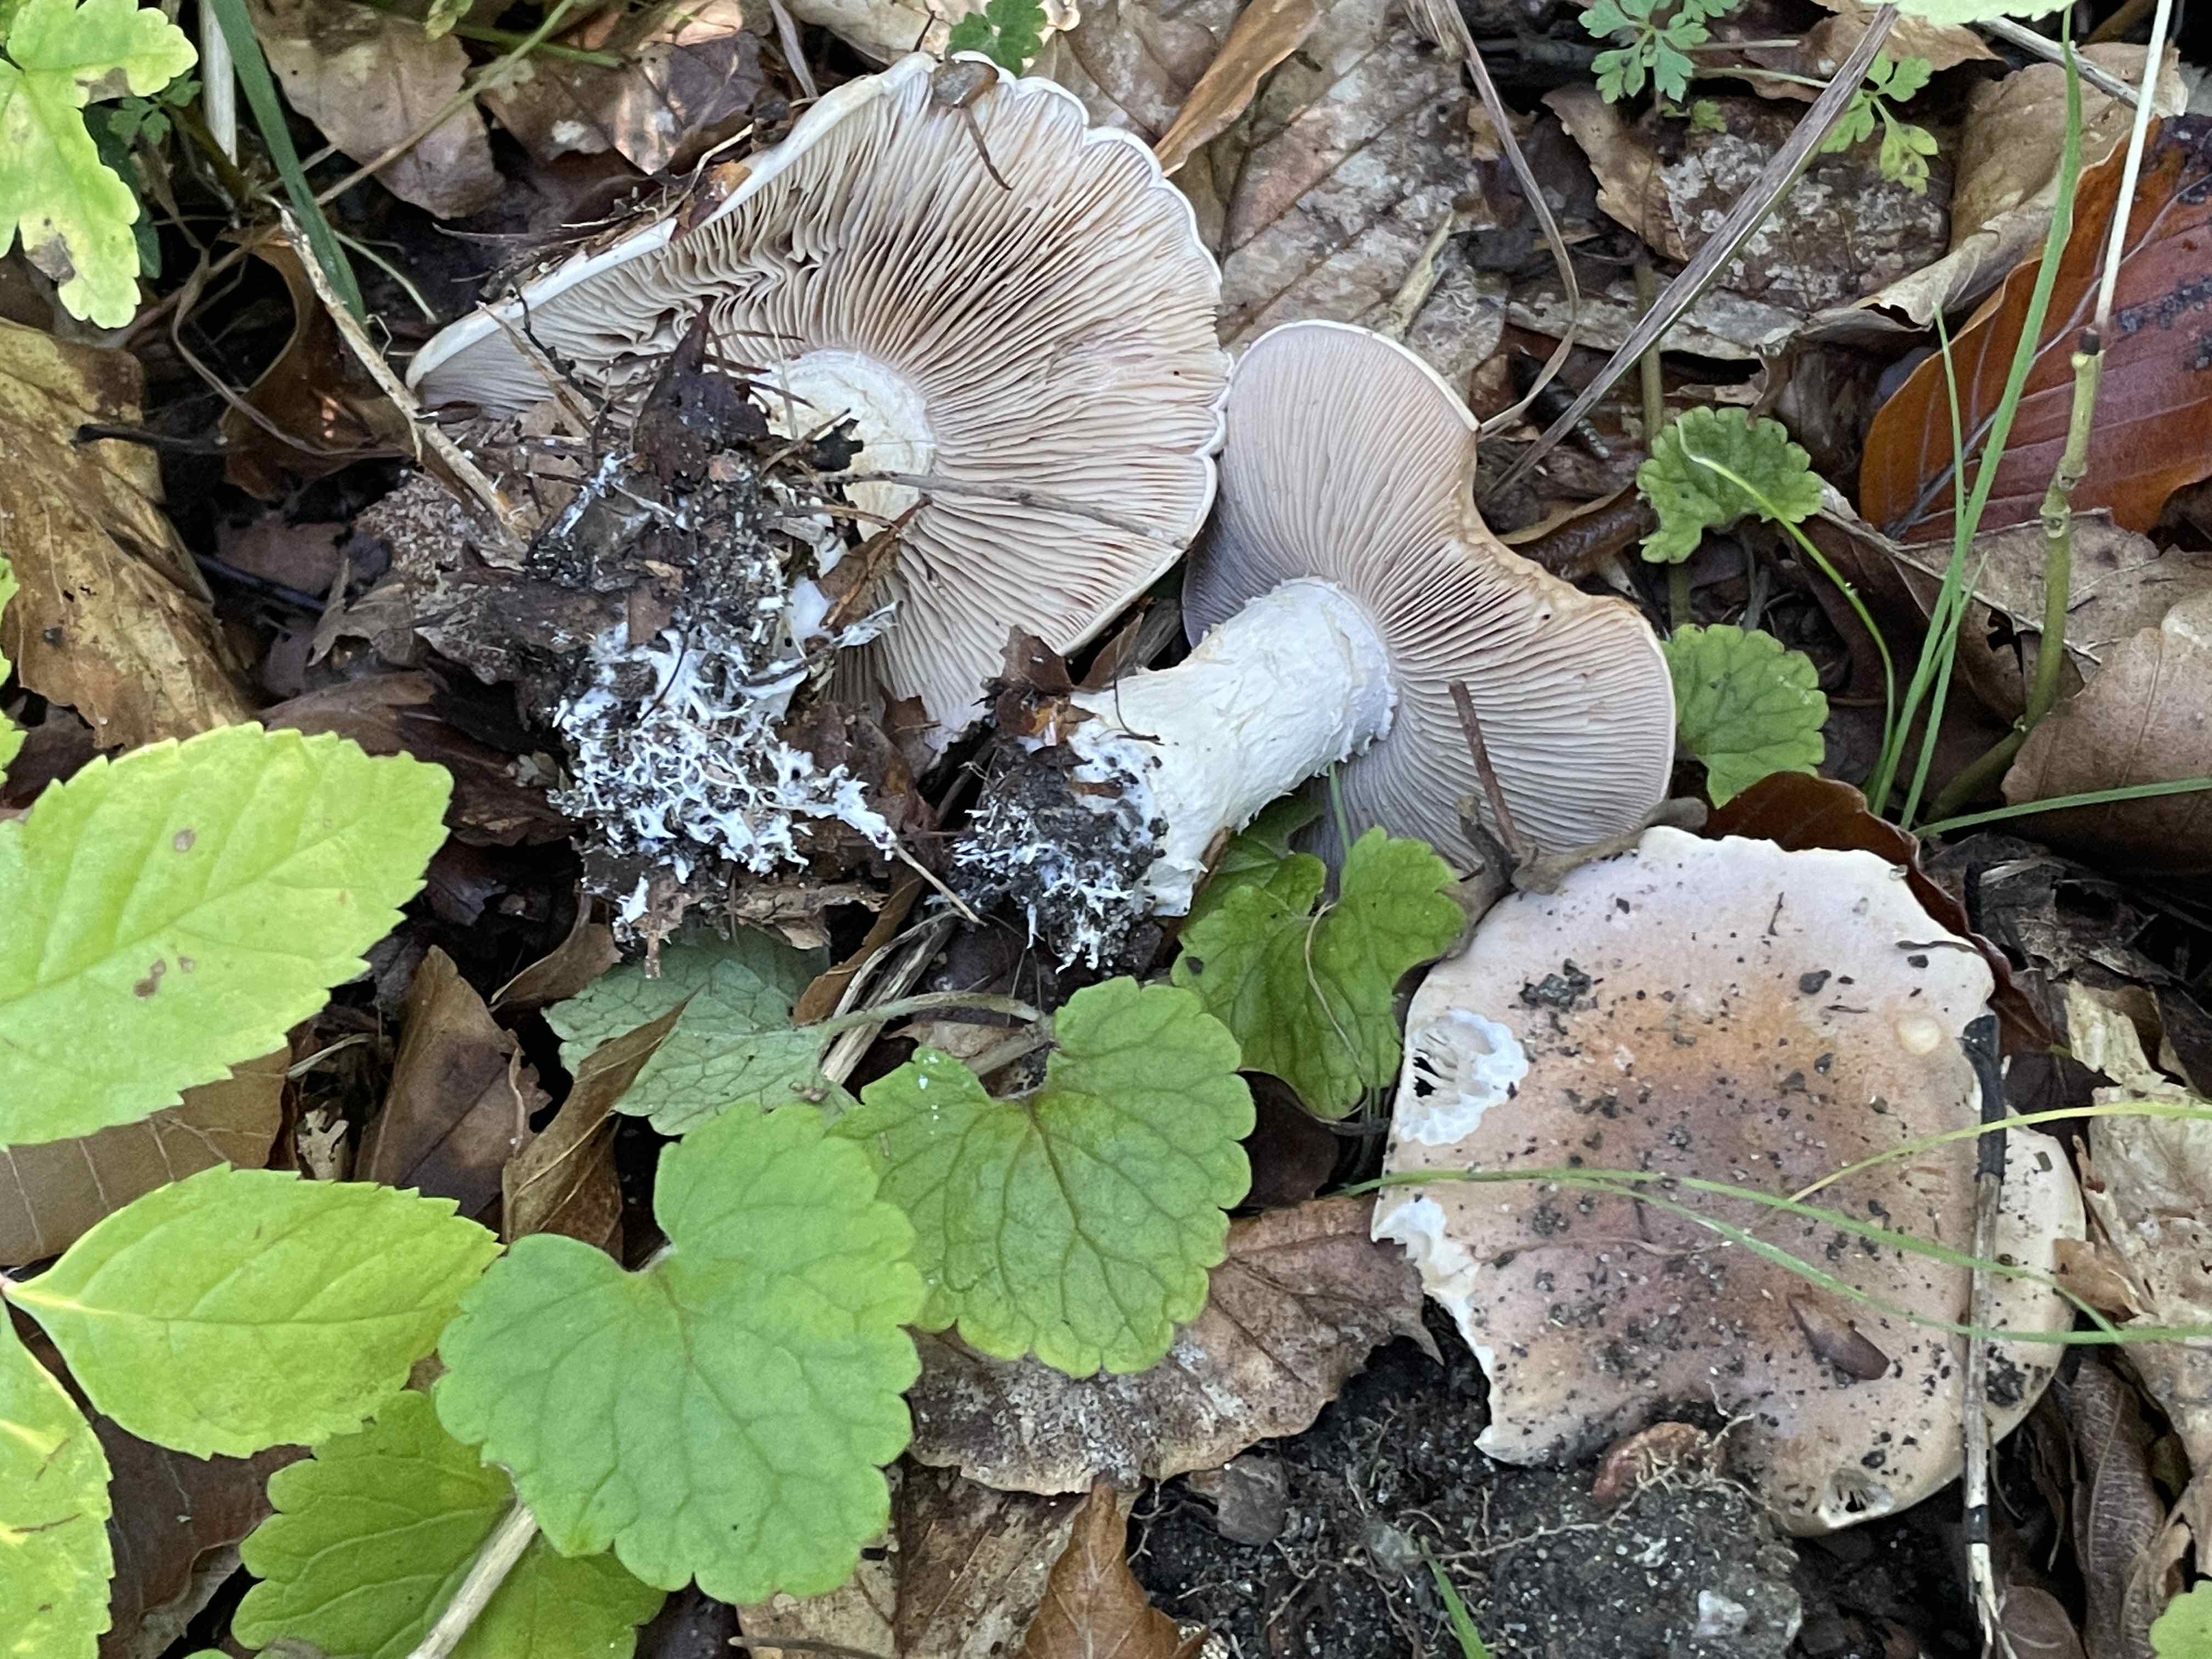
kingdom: Fungi
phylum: Basidiomycota
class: Agaricomycetes
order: Agaricales
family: Hymenogastraceae
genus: Hebeloma
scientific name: Hebeloma sinapizans
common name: ræddike-tåreblad
